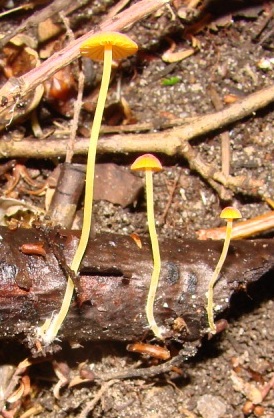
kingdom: Fungi
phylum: Basidiomycota
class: Agaricomycetes
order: Agaricales
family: Mycenaceae
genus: Mycena
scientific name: Mycena acicula
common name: orange huesvamp
